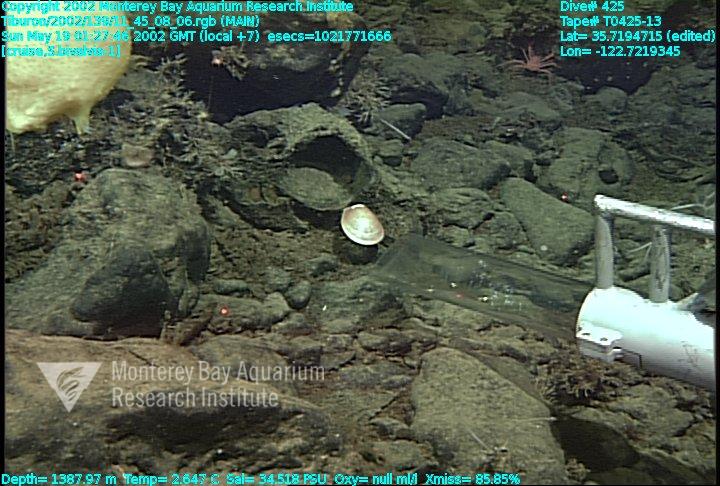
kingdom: Animalia
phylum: Porifera
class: Hexactinellida
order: Lyssacinosida
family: Rossellidae
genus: Staurocalyptus
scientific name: Staurocalyptus
